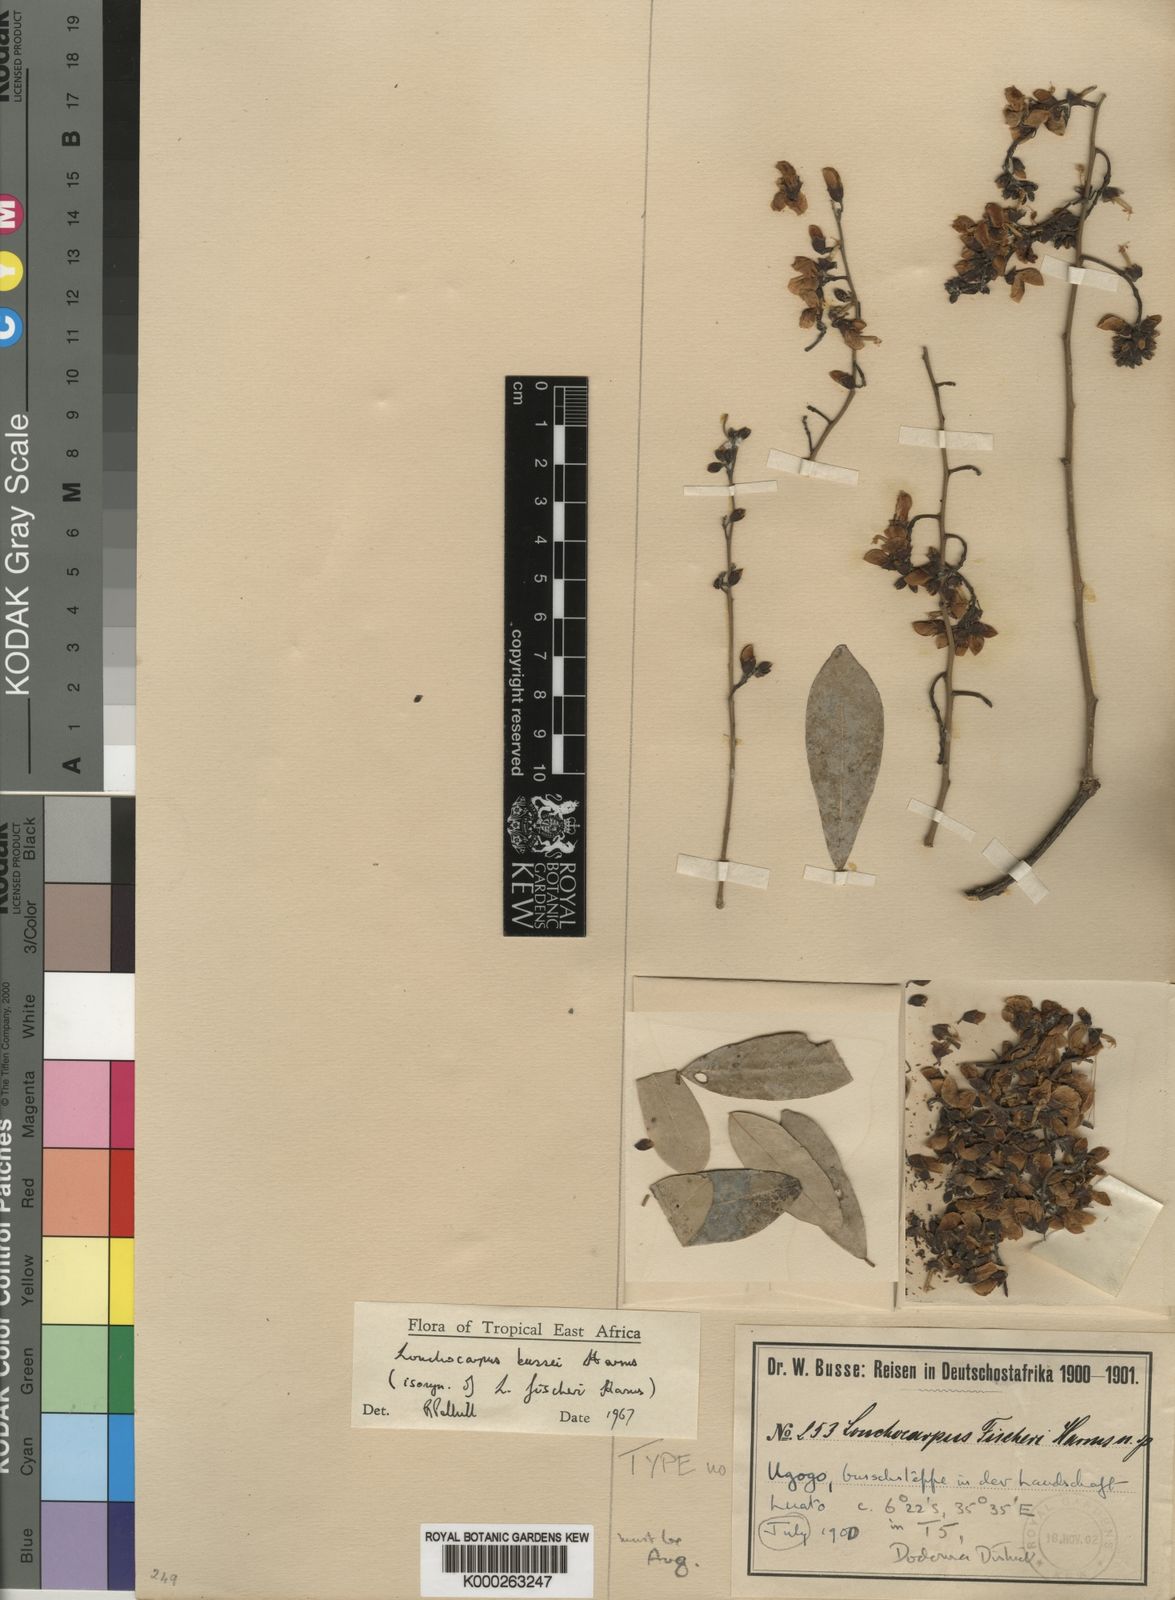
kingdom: Plantae
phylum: Tracheophyta
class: Magnoliopsida
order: Fabales
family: Fabaceae
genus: Philenoptera
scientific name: Philenoptera bussei
